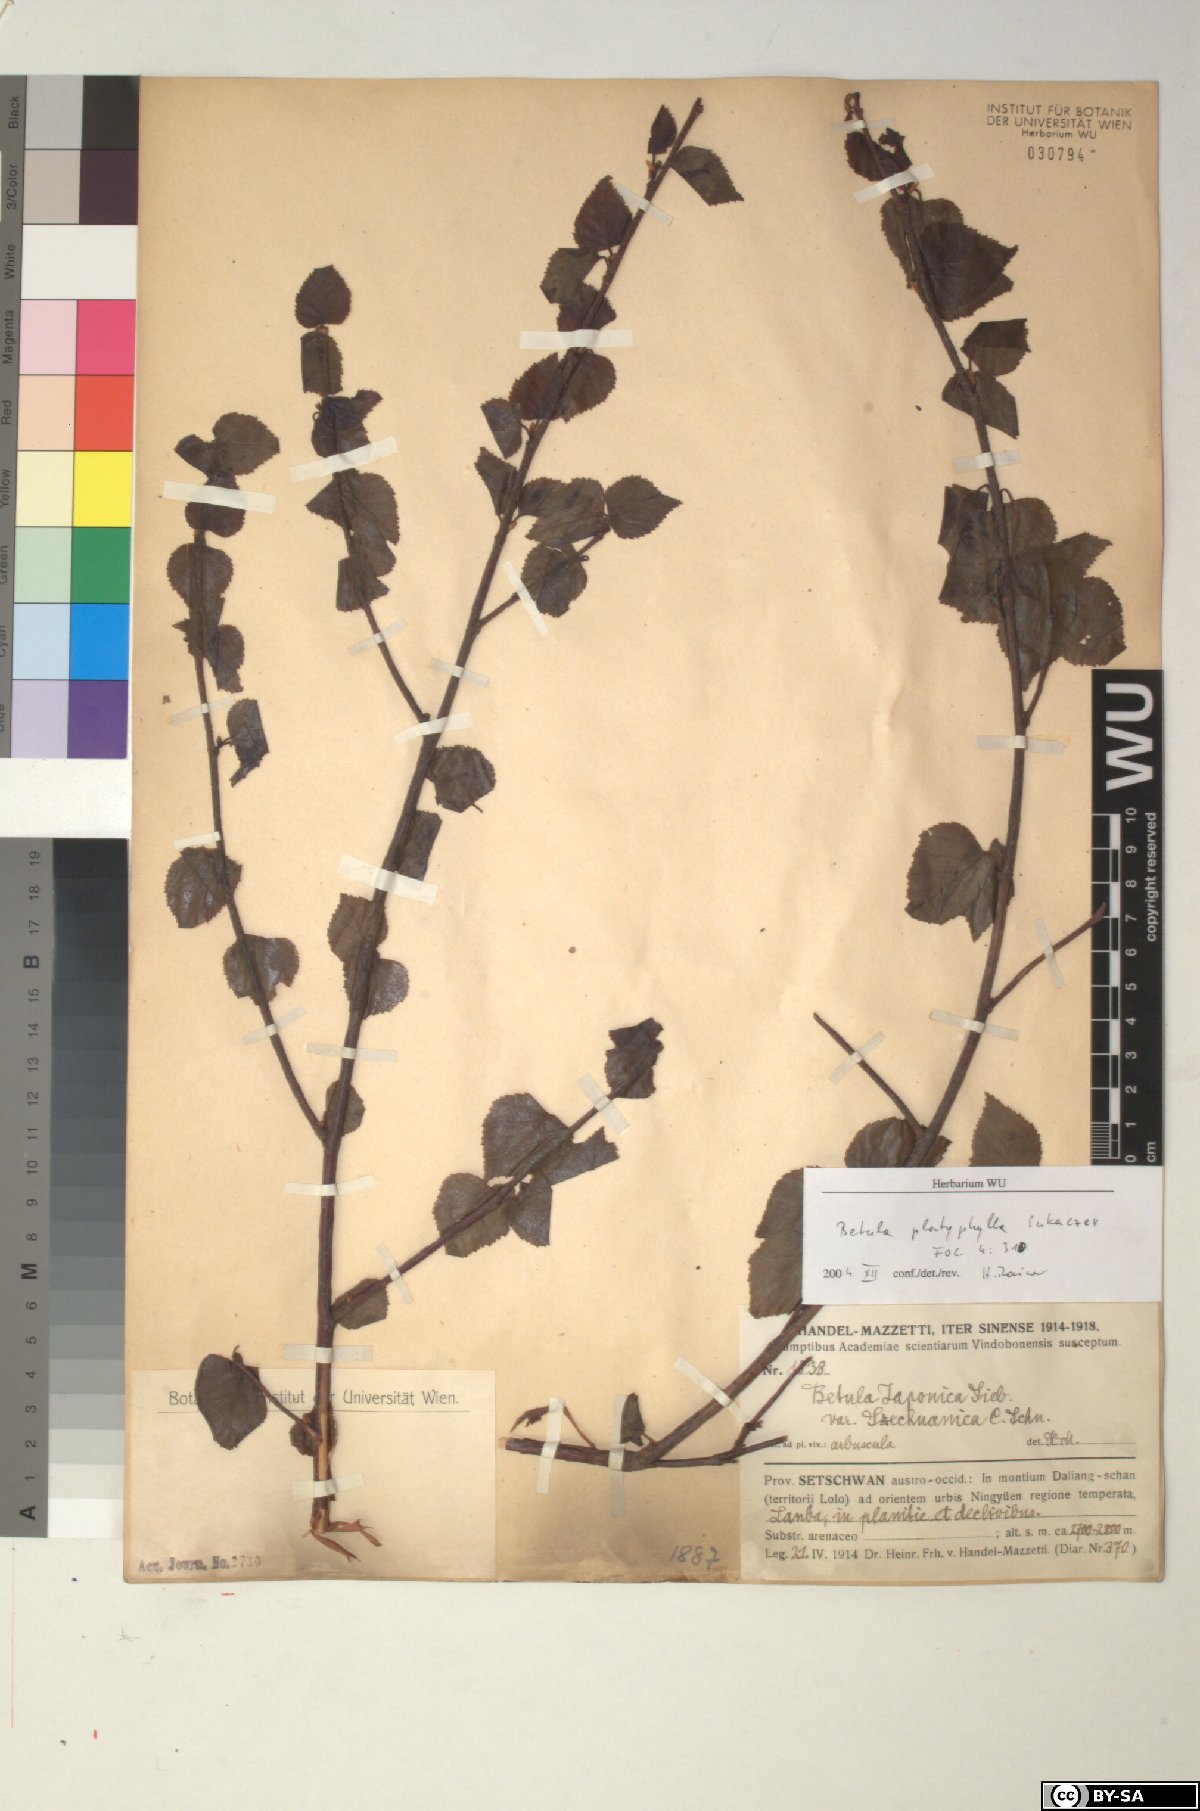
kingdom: Plantae
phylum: Tracheophyta
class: Magnoliopsida
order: Fagales
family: Betulaceae
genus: Betula
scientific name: Betula pendula
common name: Silver birch
